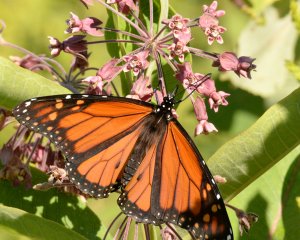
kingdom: Animalia
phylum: Arthropoda
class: Insecta
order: Lepidoptera
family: Nymphalidae
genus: Danaus
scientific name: Danaus plexippus
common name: Monarch
